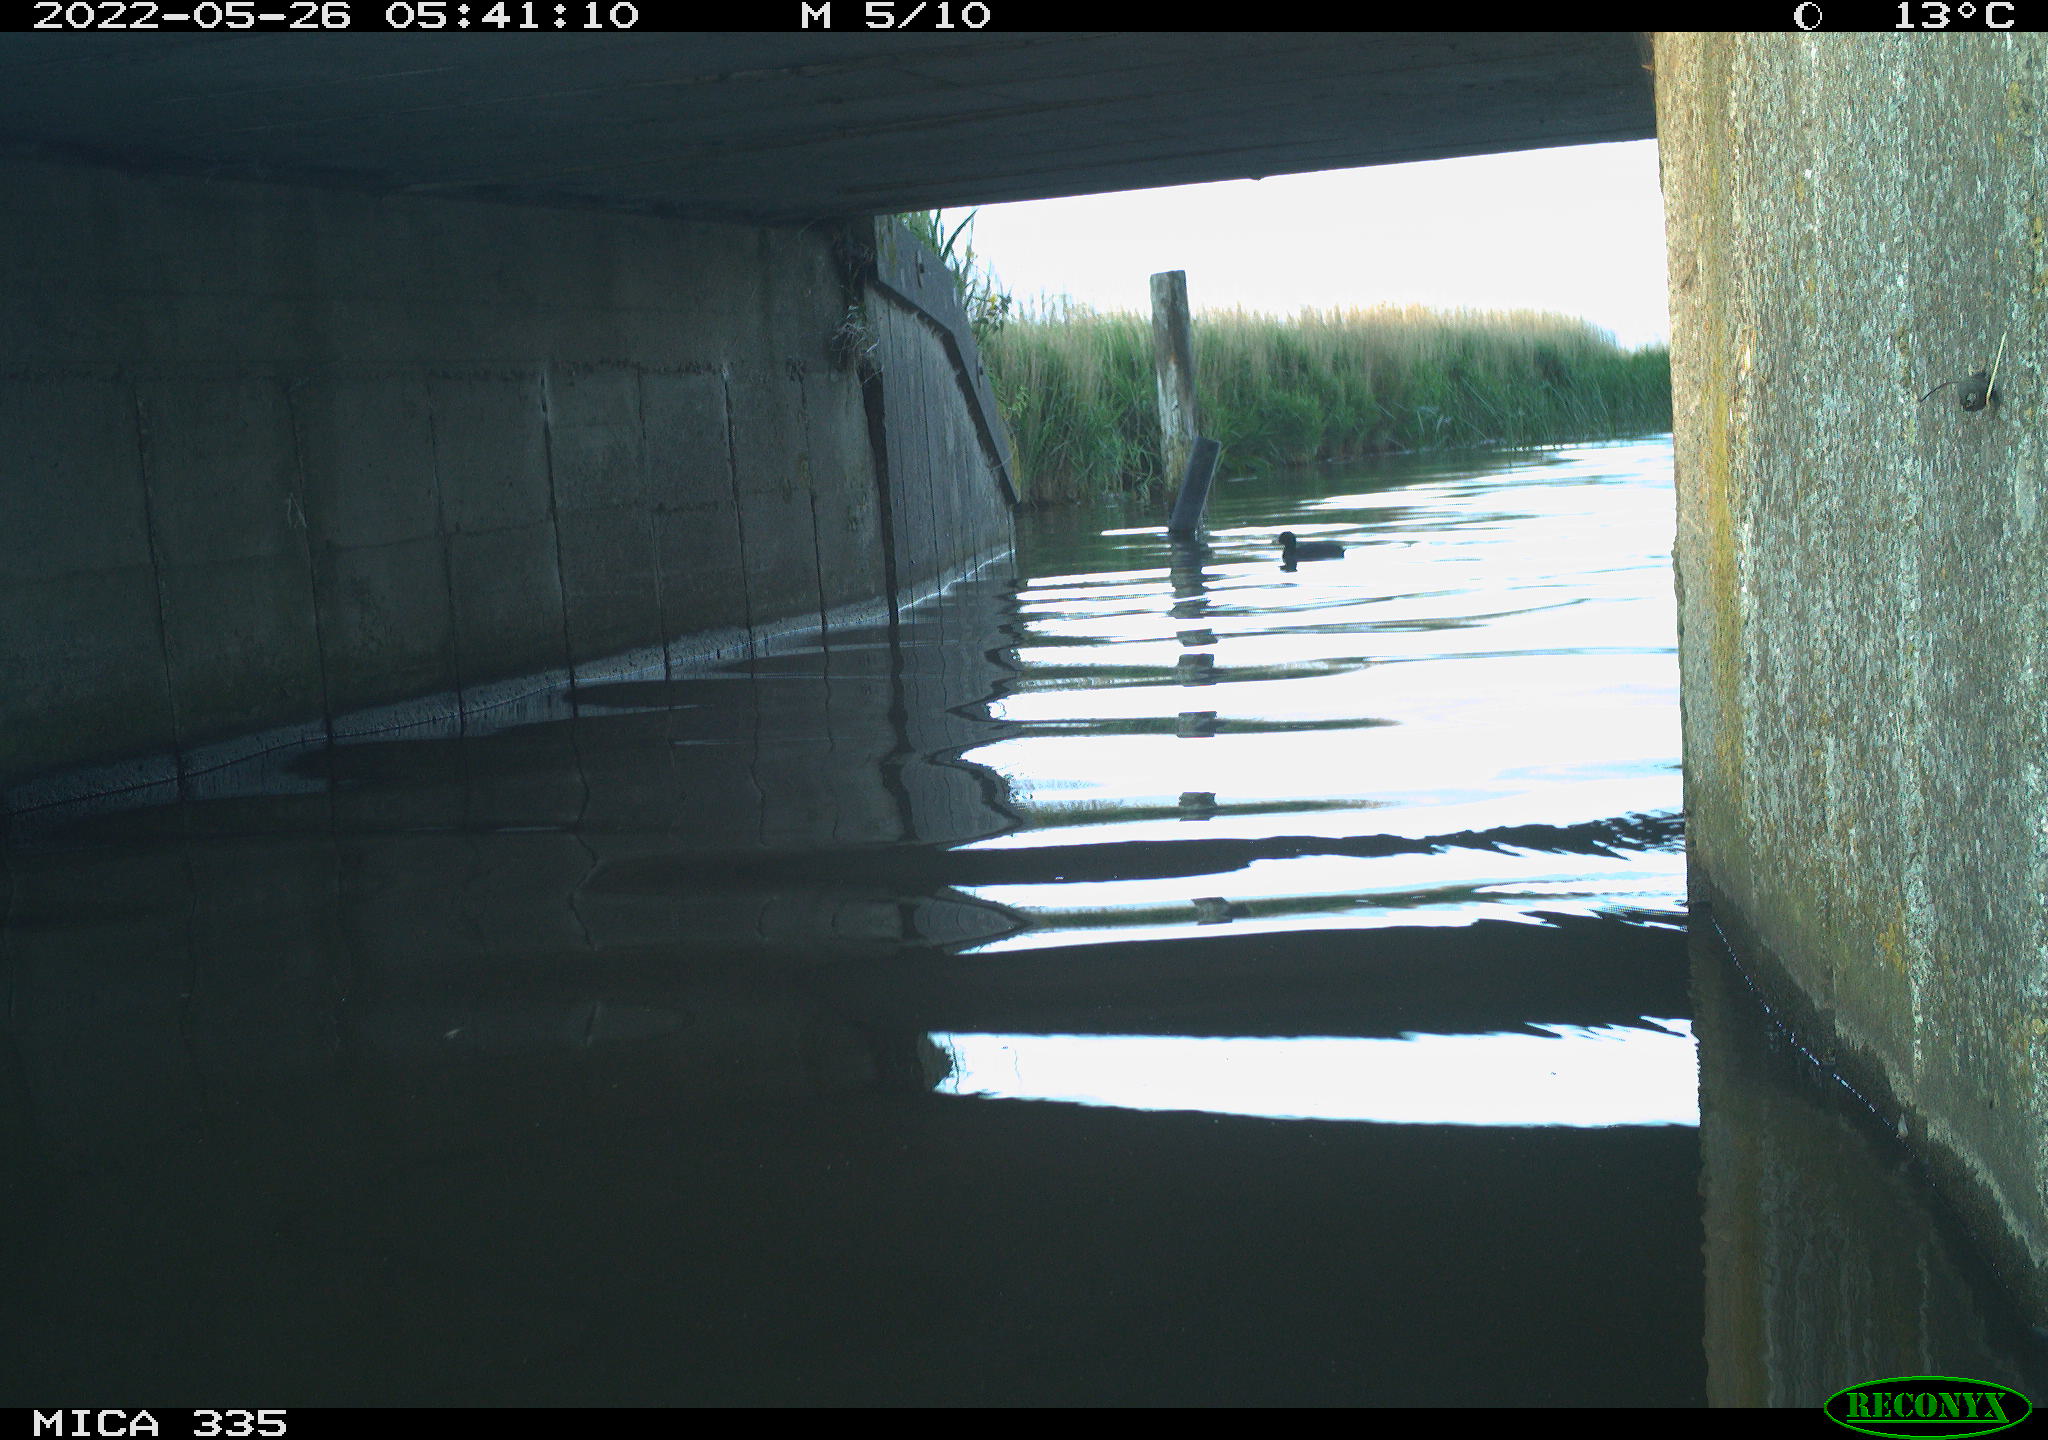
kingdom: Animalia
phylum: Chordata
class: Aves
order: Gruiformes
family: Rallidae
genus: Fulica
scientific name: Fulica atra
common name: Eurasian coot
